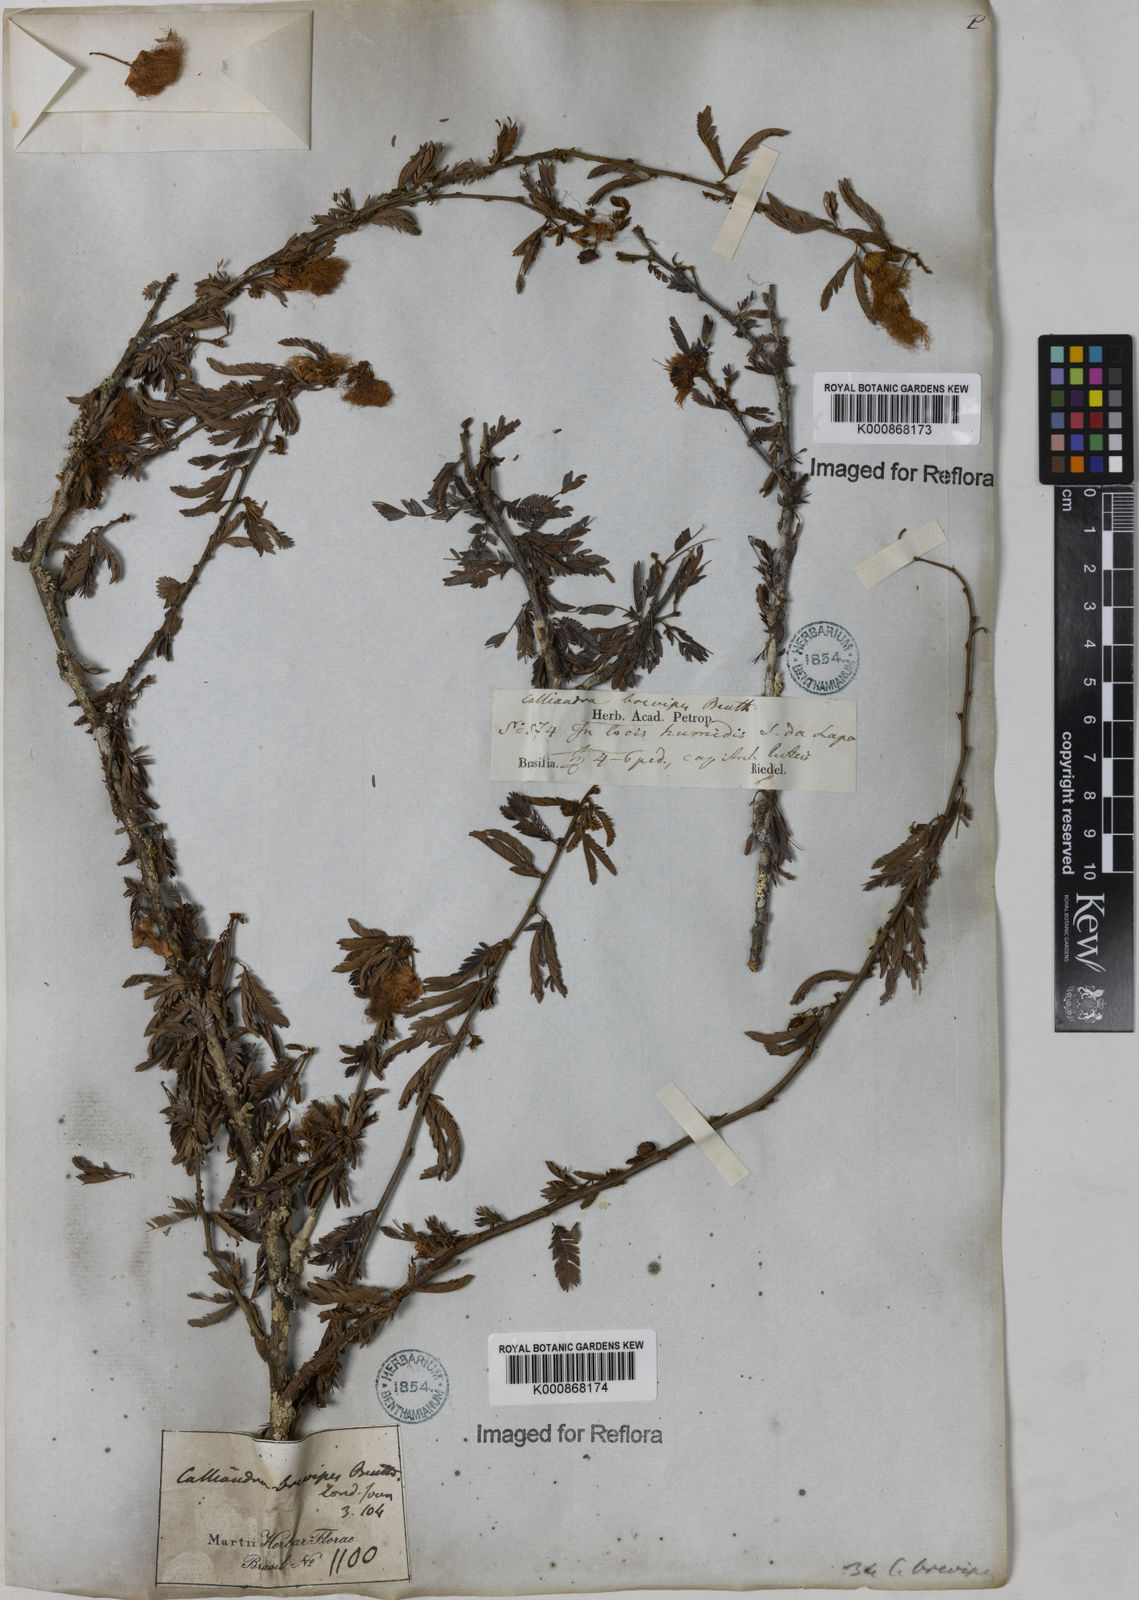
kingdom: Plantae
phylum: Tracheophyta
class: Magnoliopsida
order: Fabales
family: Fabaceae
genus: Calliandra
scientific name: Calliandra selloi
